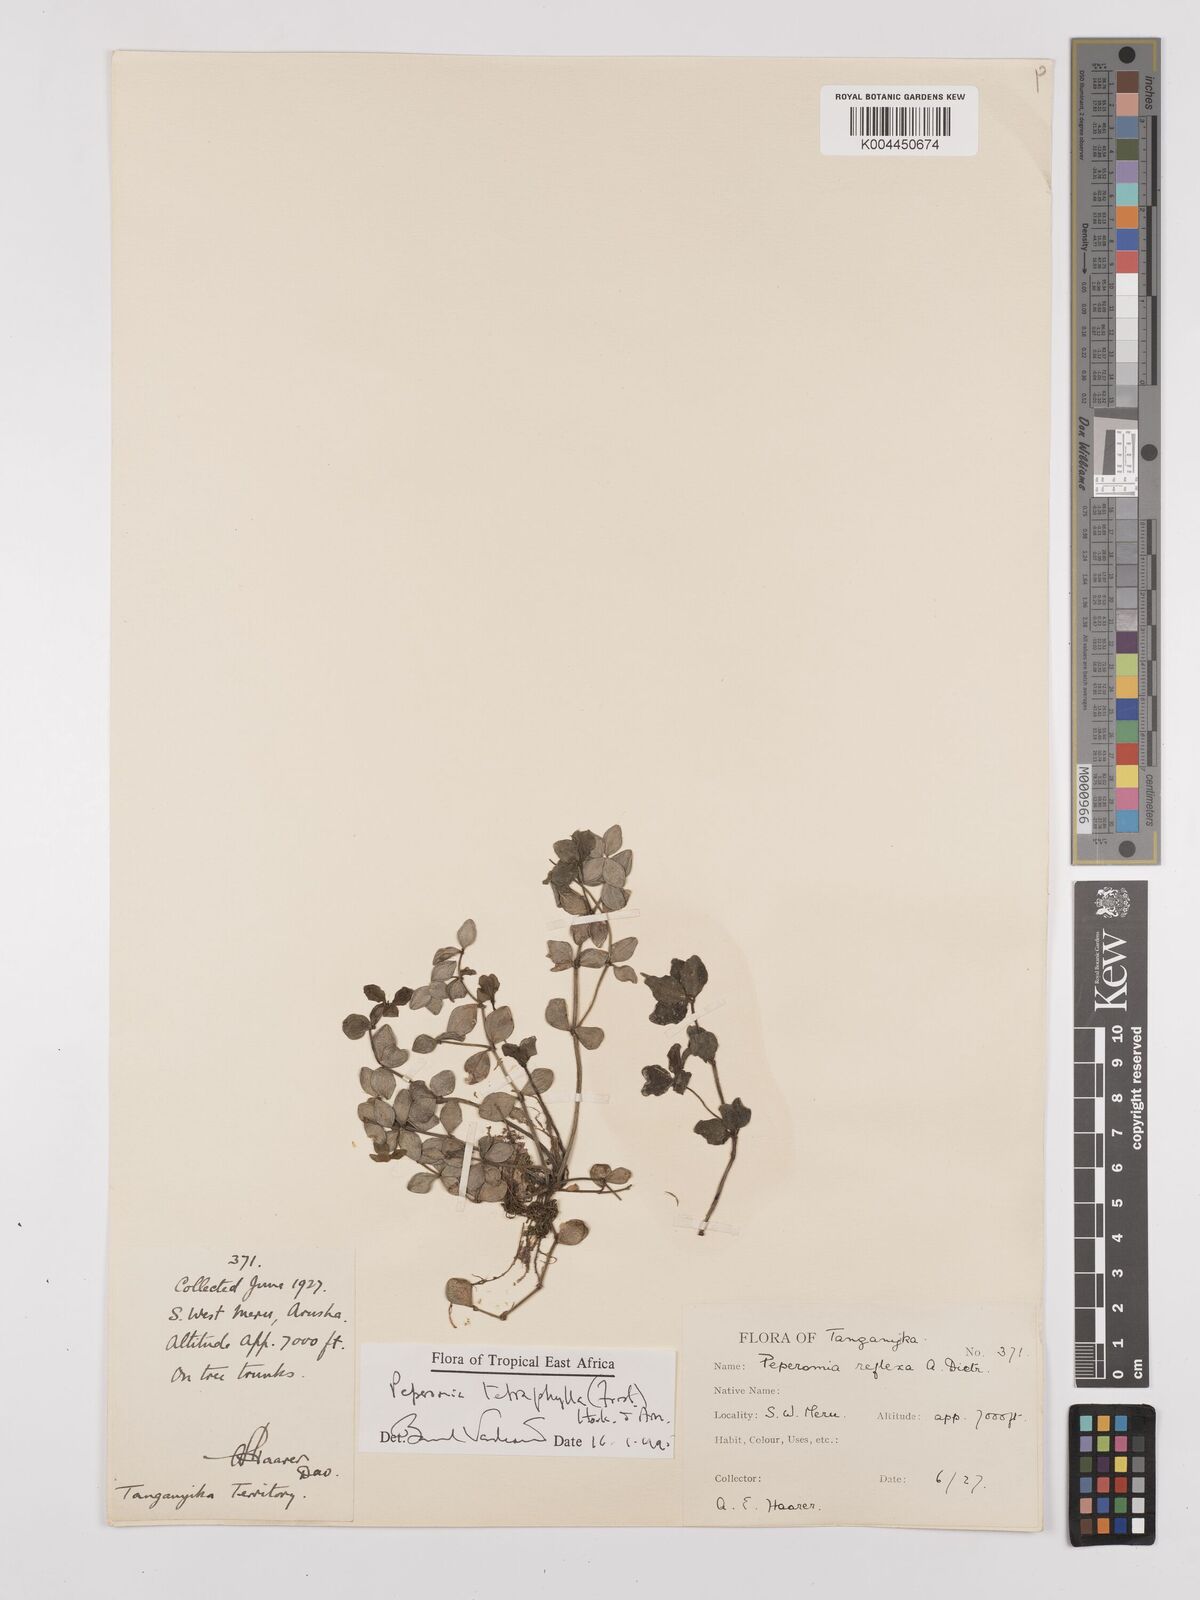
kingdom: Plantae
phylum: Tracheophyta
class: Magnoliopsida
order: Piperales
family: Piperaceae
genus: Peperomia
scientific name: Peperomia tetraphylla
